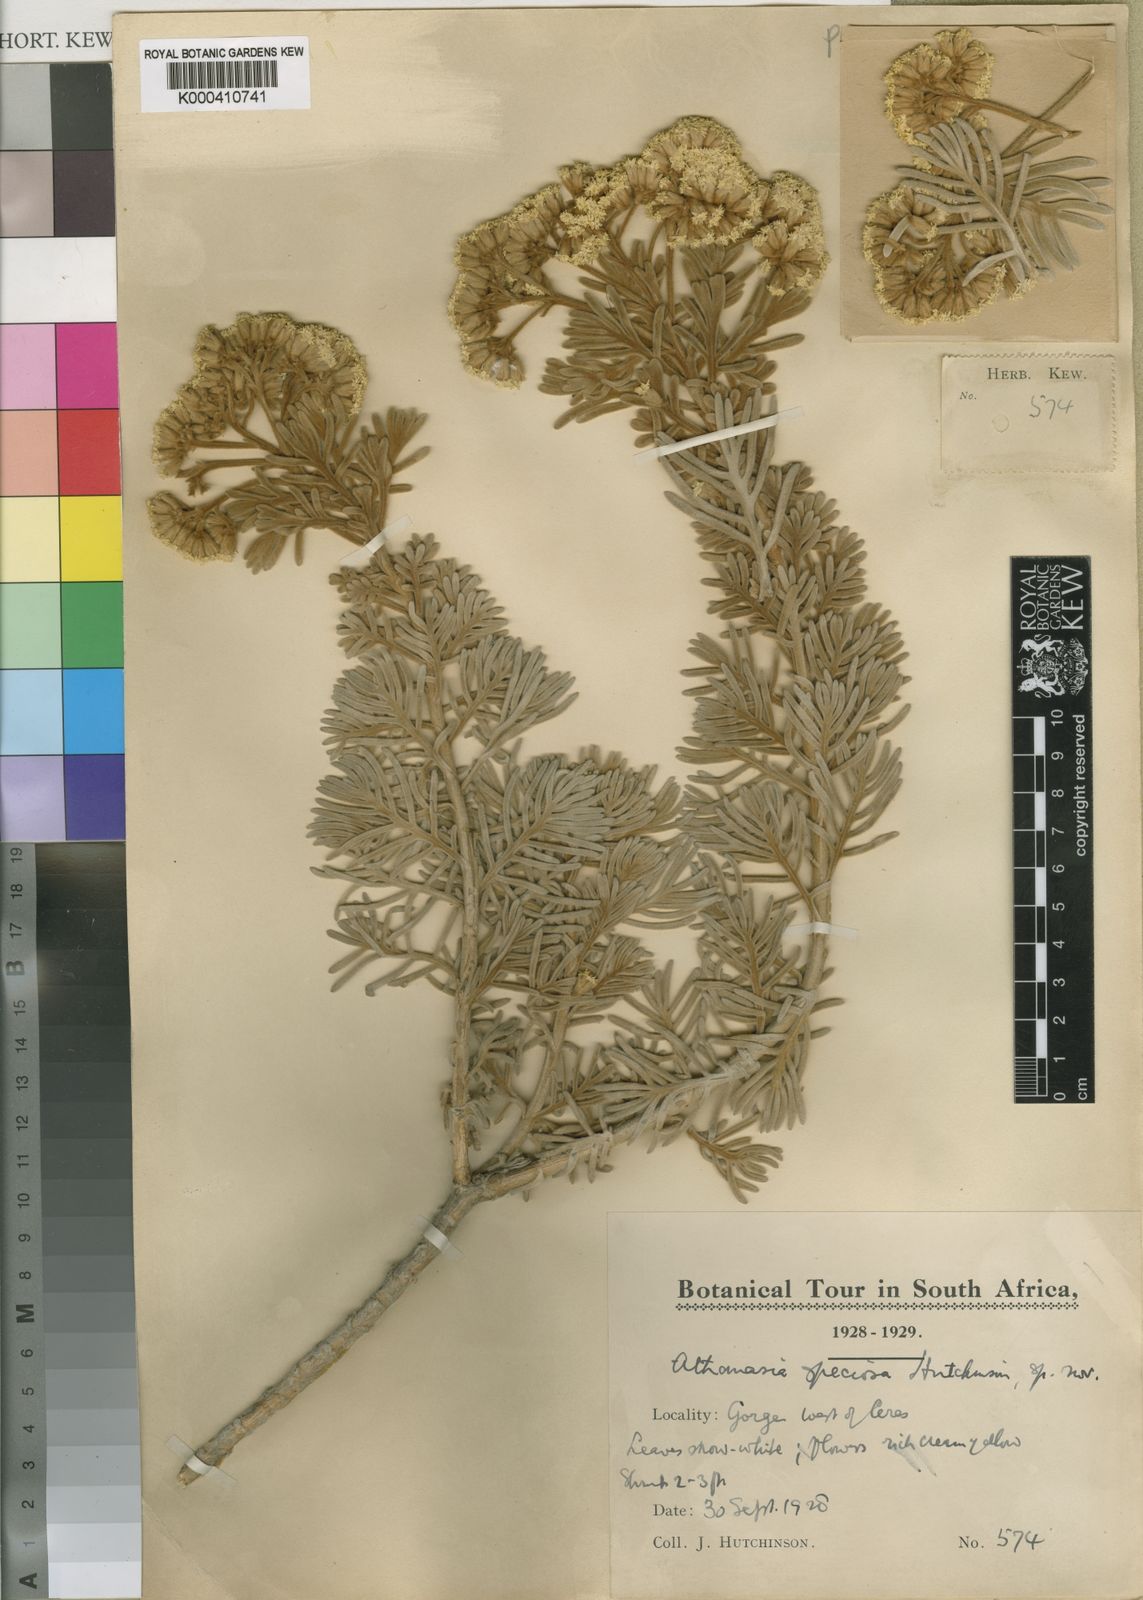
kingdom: Plantae
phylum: Tracheophyta
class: Magnoliopsida
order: Asterales
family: Asteraceae
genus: Hymenolepis
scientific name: Hymenolepis
